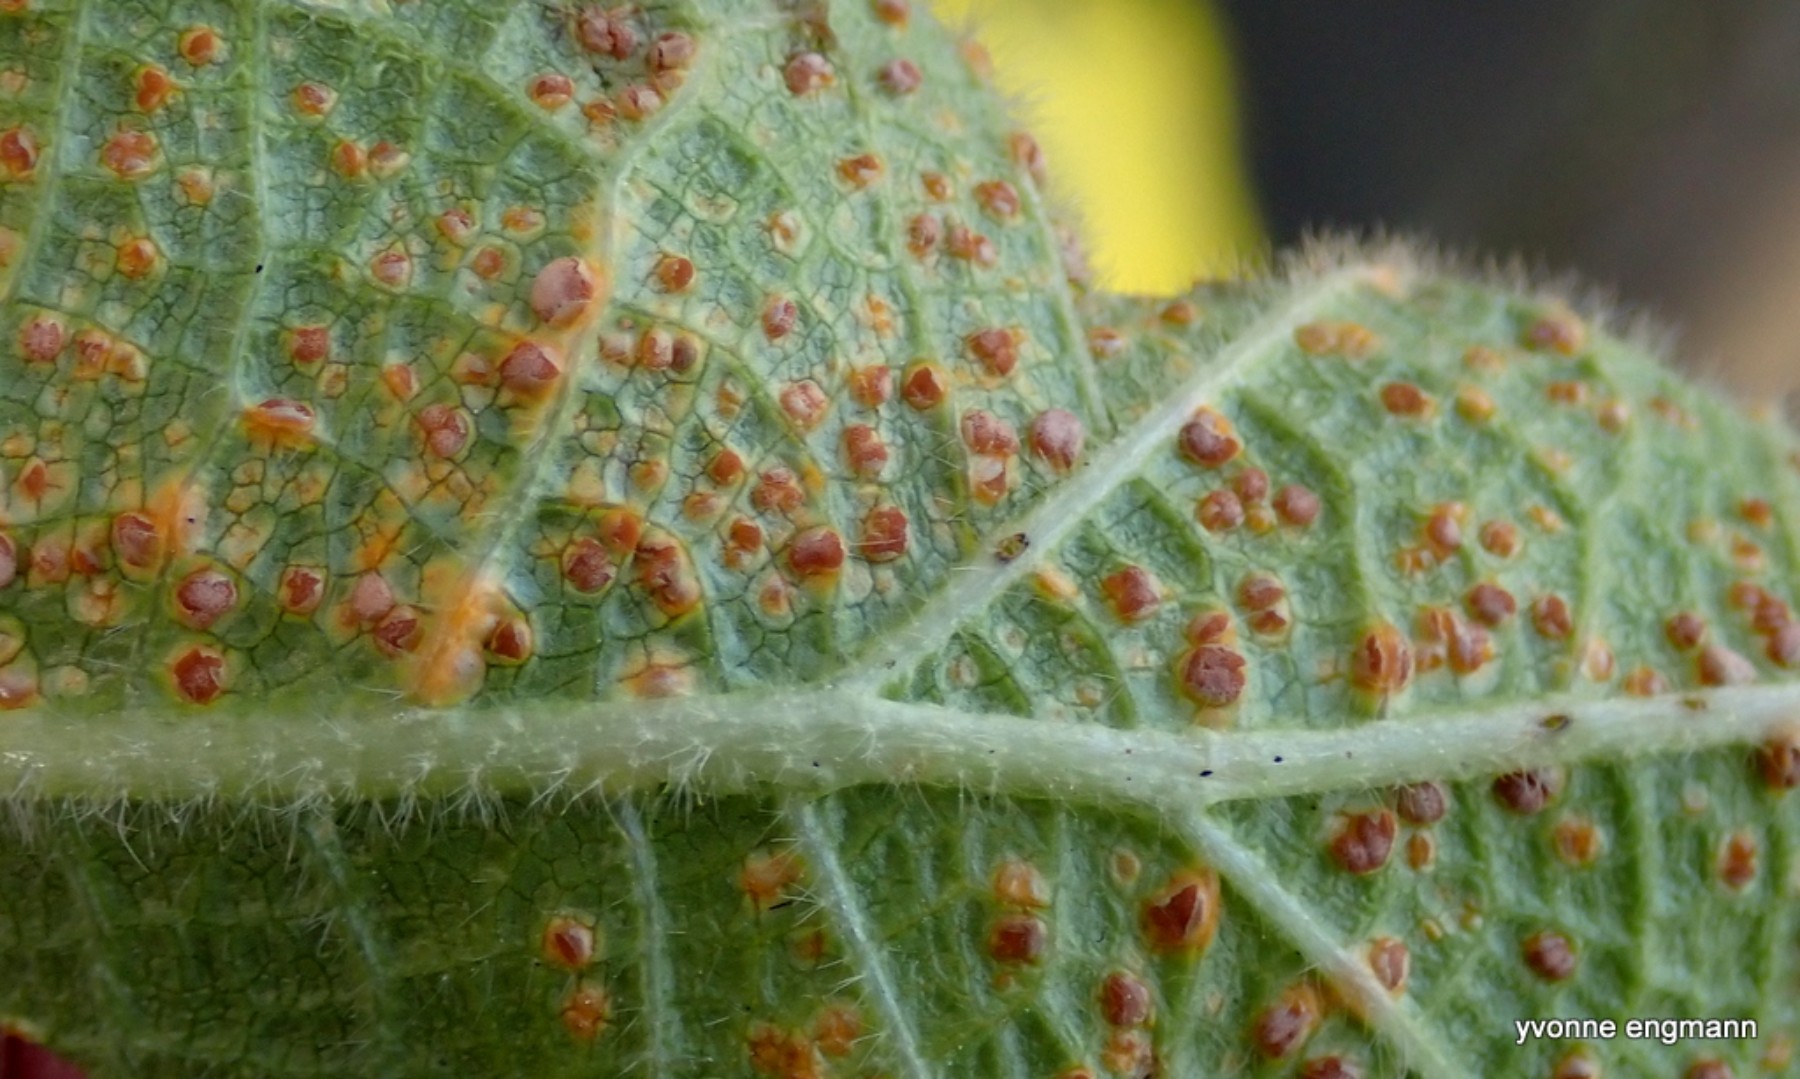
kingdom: Fungi
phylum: Basidiomycota
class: Pucciniomycetes
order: Pucciniales
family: Pucciniaceae
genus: Puccinia
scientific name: Puccinia malvacearum
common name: stokrose-tvecellerust
